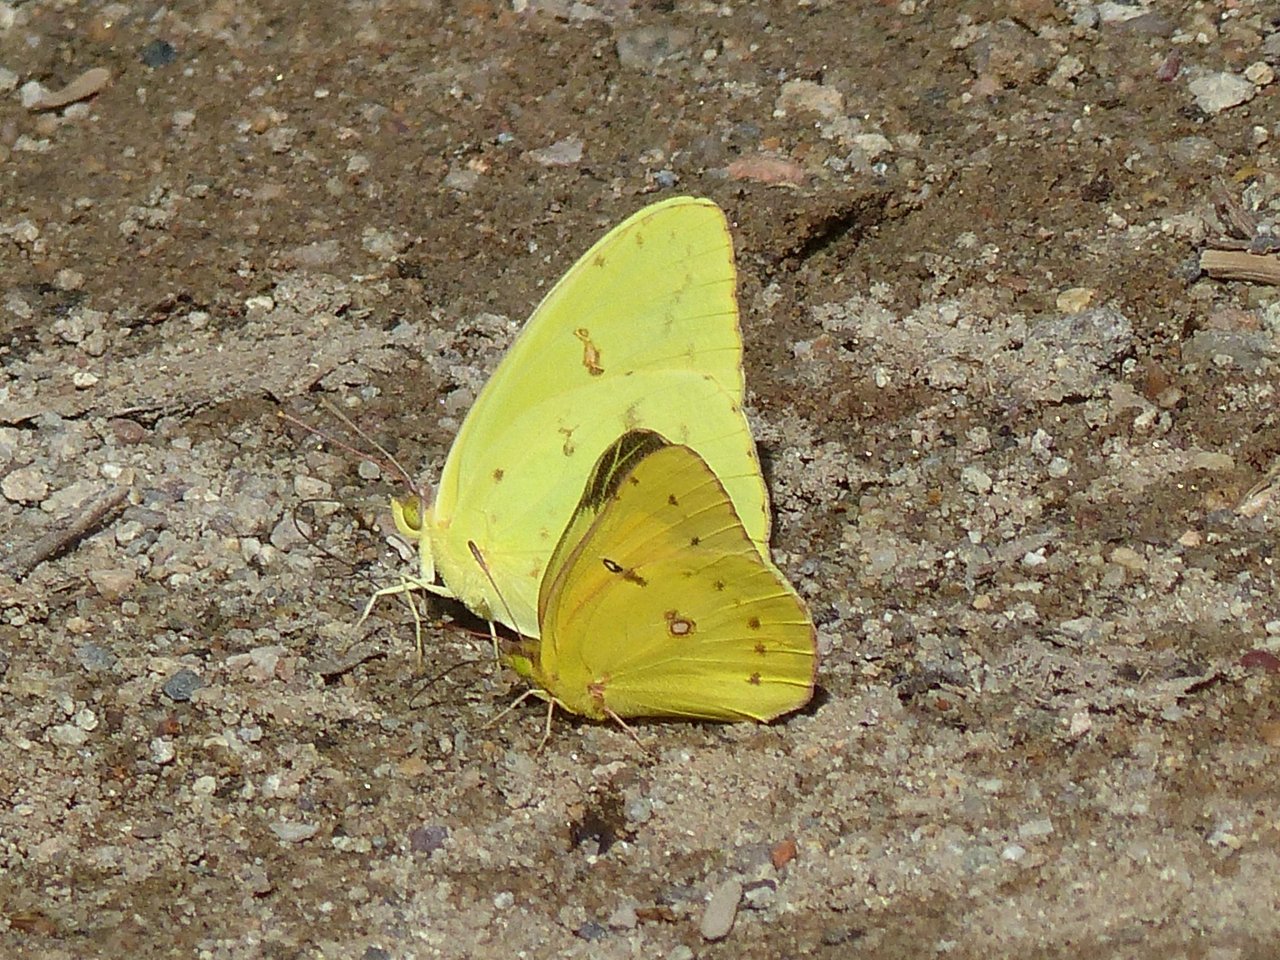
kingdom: Animalia
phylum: Arthropoda
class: Insecta
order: Lepidoptera
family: Pieridae
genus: Phoebis
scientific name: Phoebis sennae
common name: Cloudless Sulphur
